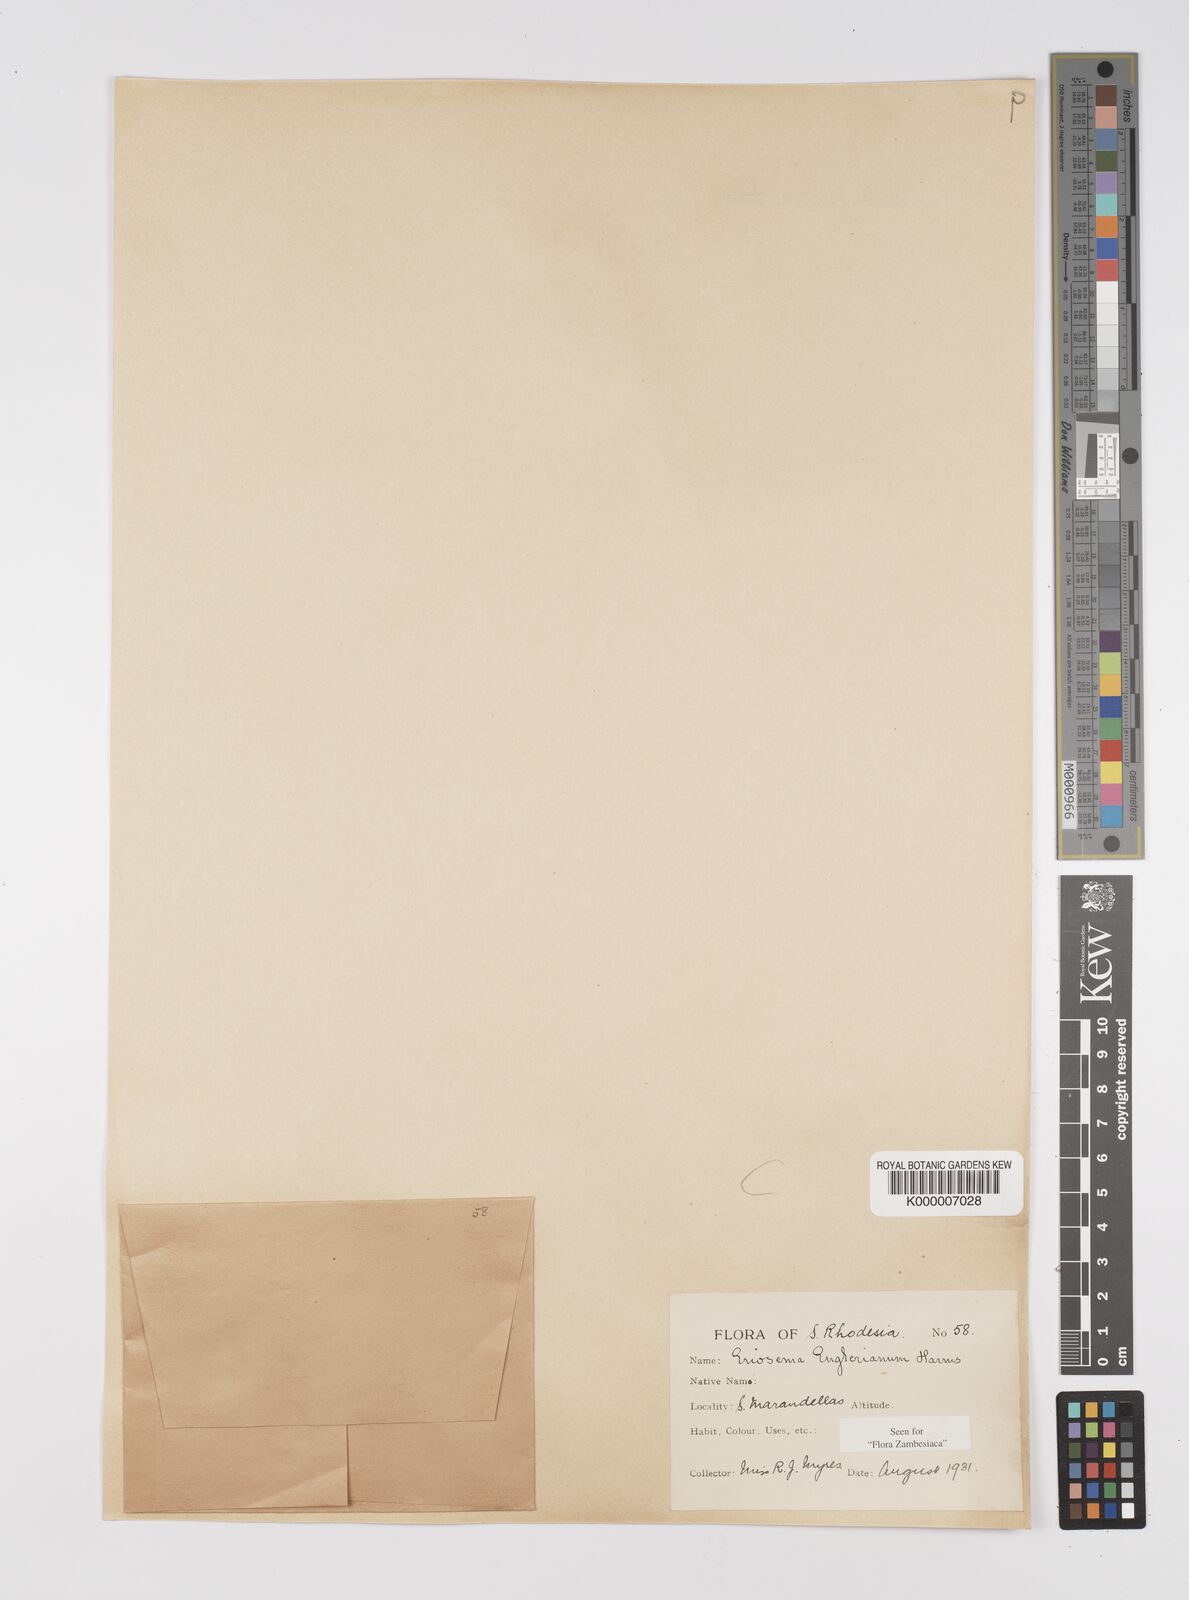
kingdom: Plantae
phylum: Tracheophyta
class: Magnoliopsida
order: Fabales
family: Fabaceae
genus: Eriosema
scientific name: Eriosema englerianum
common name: Blue bush
